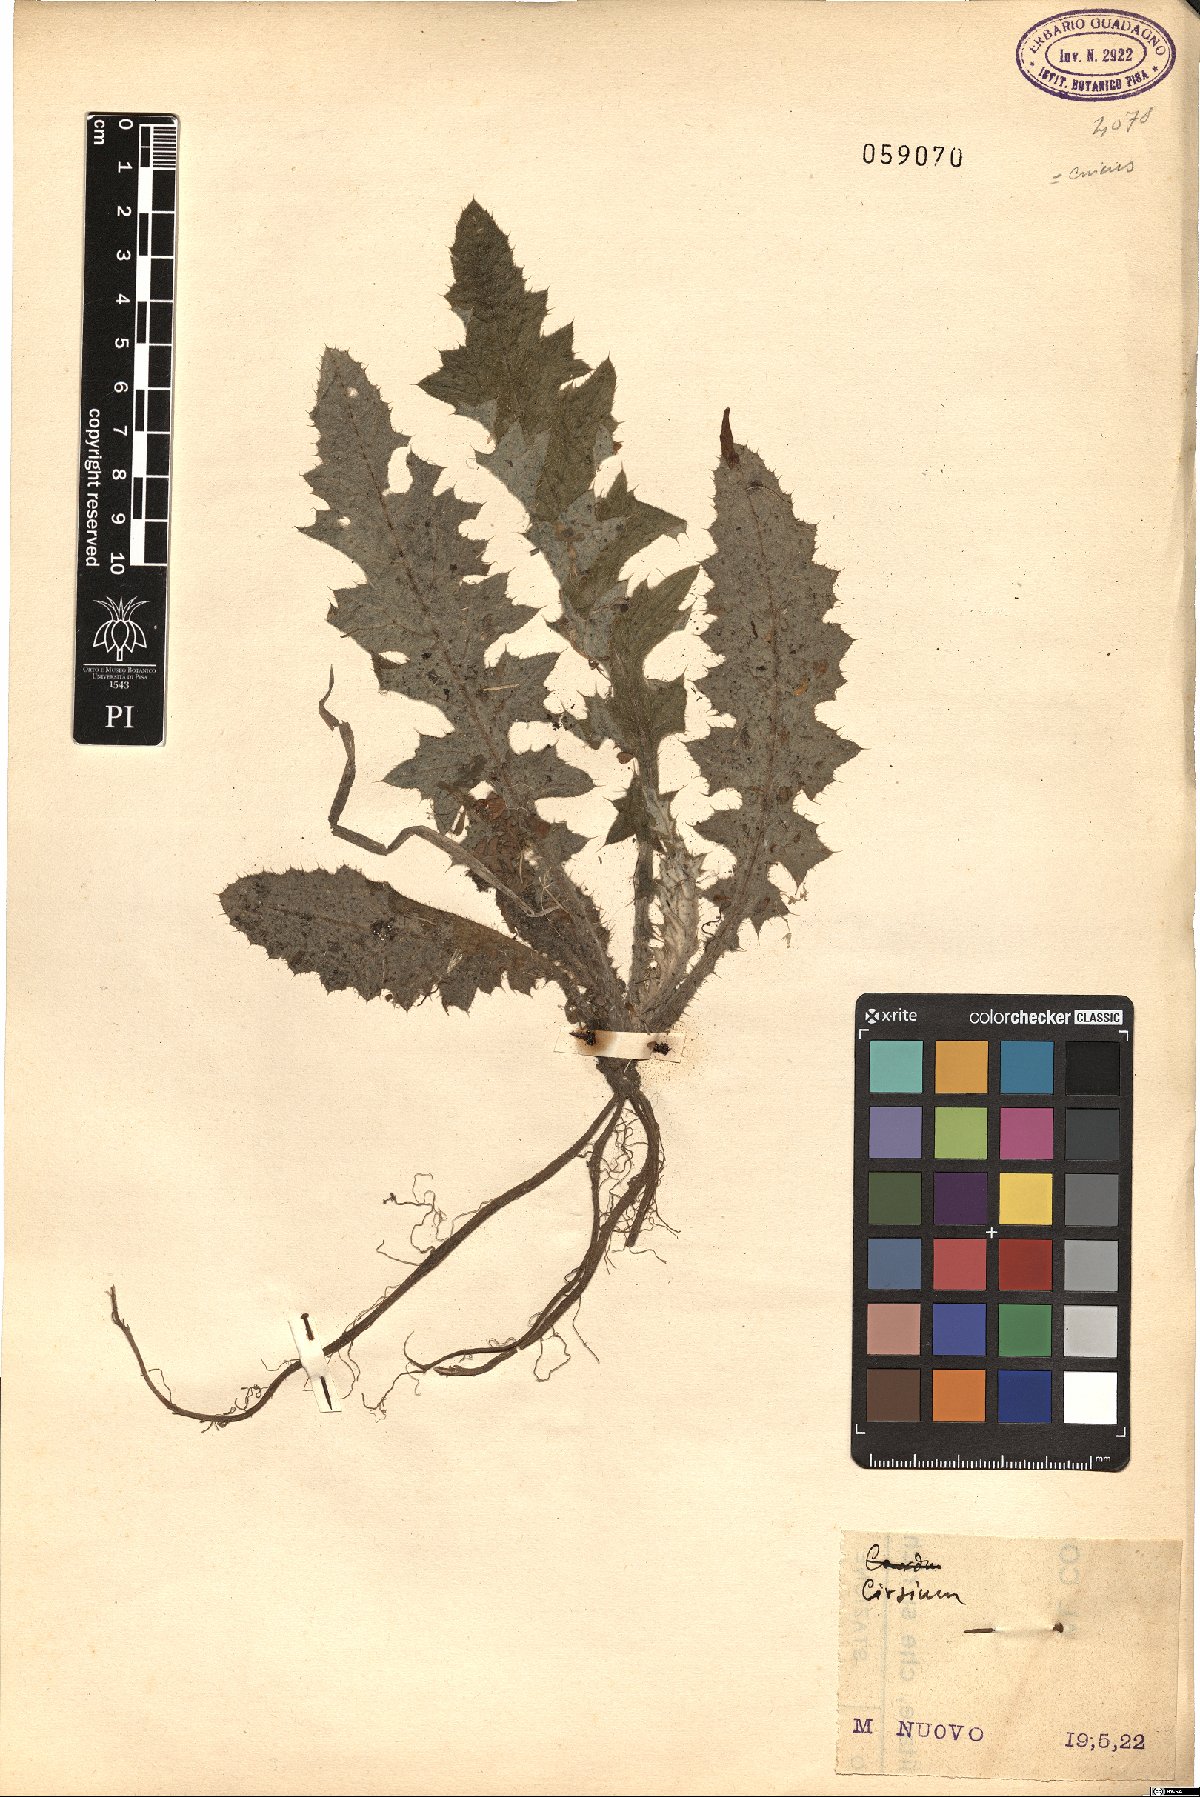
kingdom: Plantae
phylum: Tracheophyta
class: Magnoliopsida
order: Asterales
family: Asteraceae
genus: Cirsium
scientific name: Cirsium
